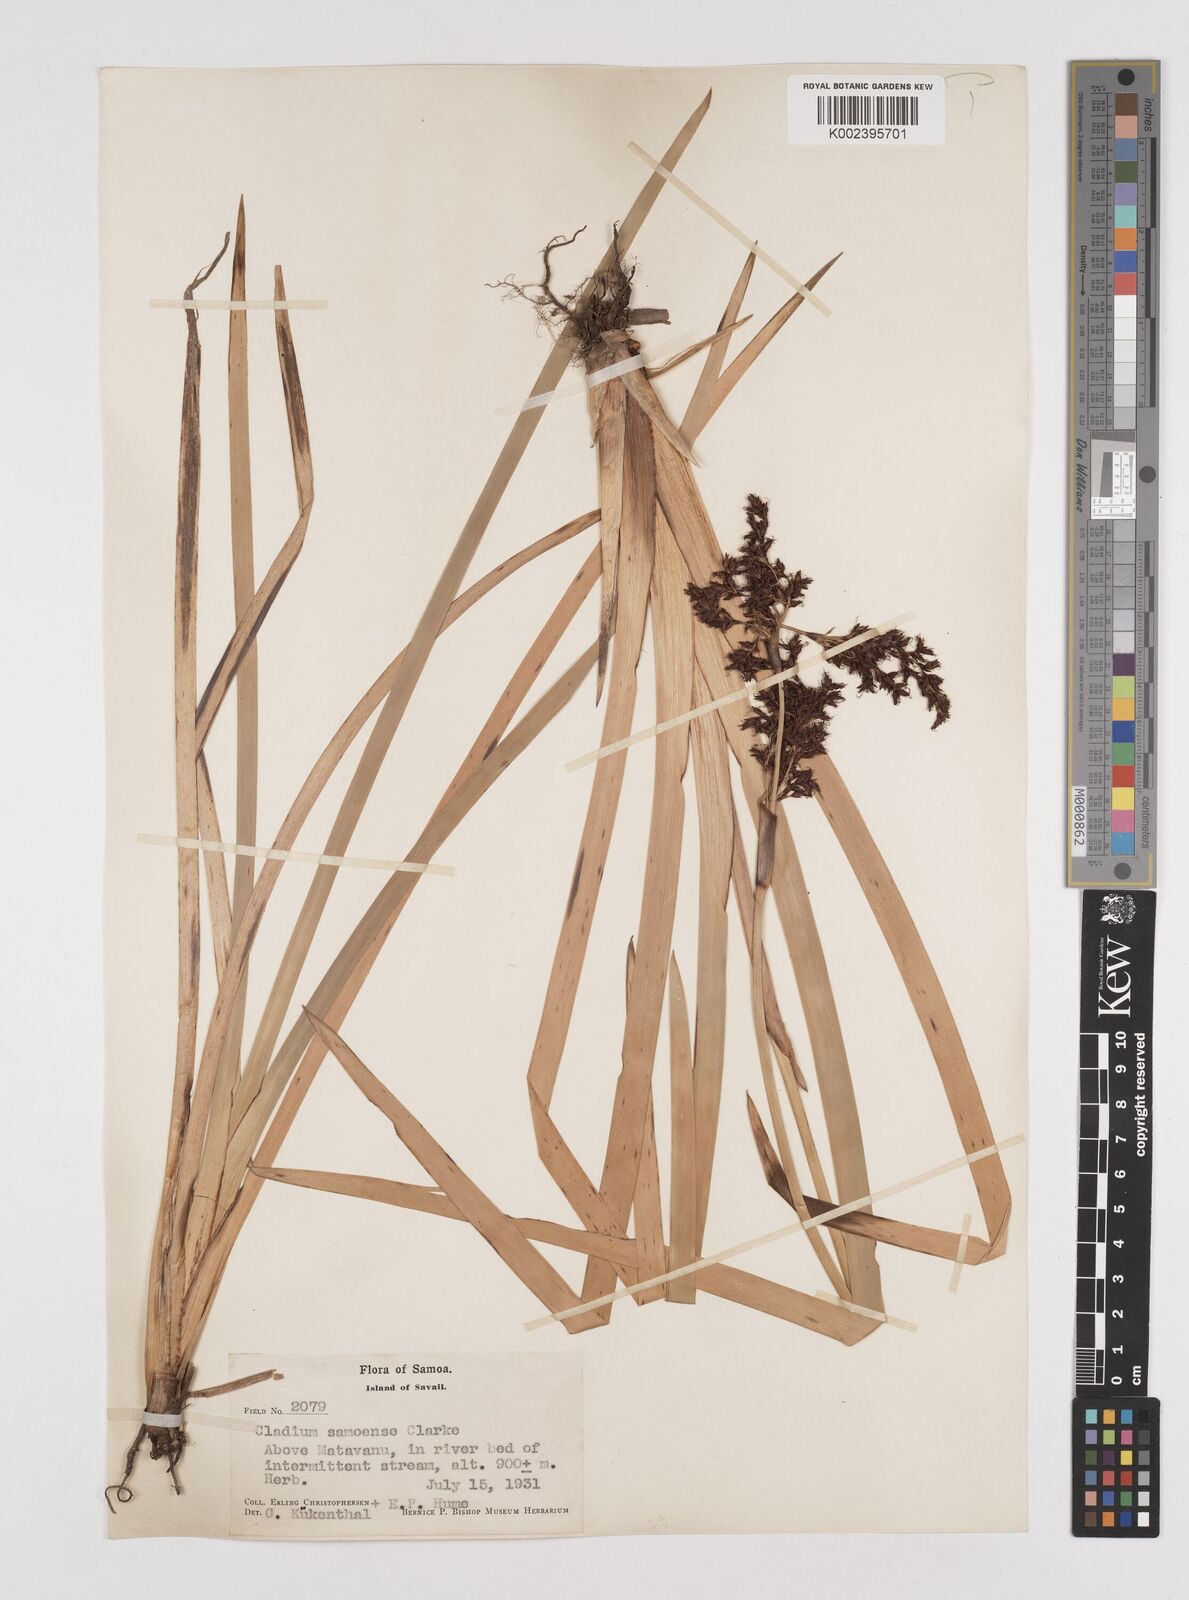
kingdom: Plantae
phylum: Tracheophyta
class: Liliopsida
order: Poales
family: Cyperaceae
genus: Machaerina
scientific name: Machaerina falcata
